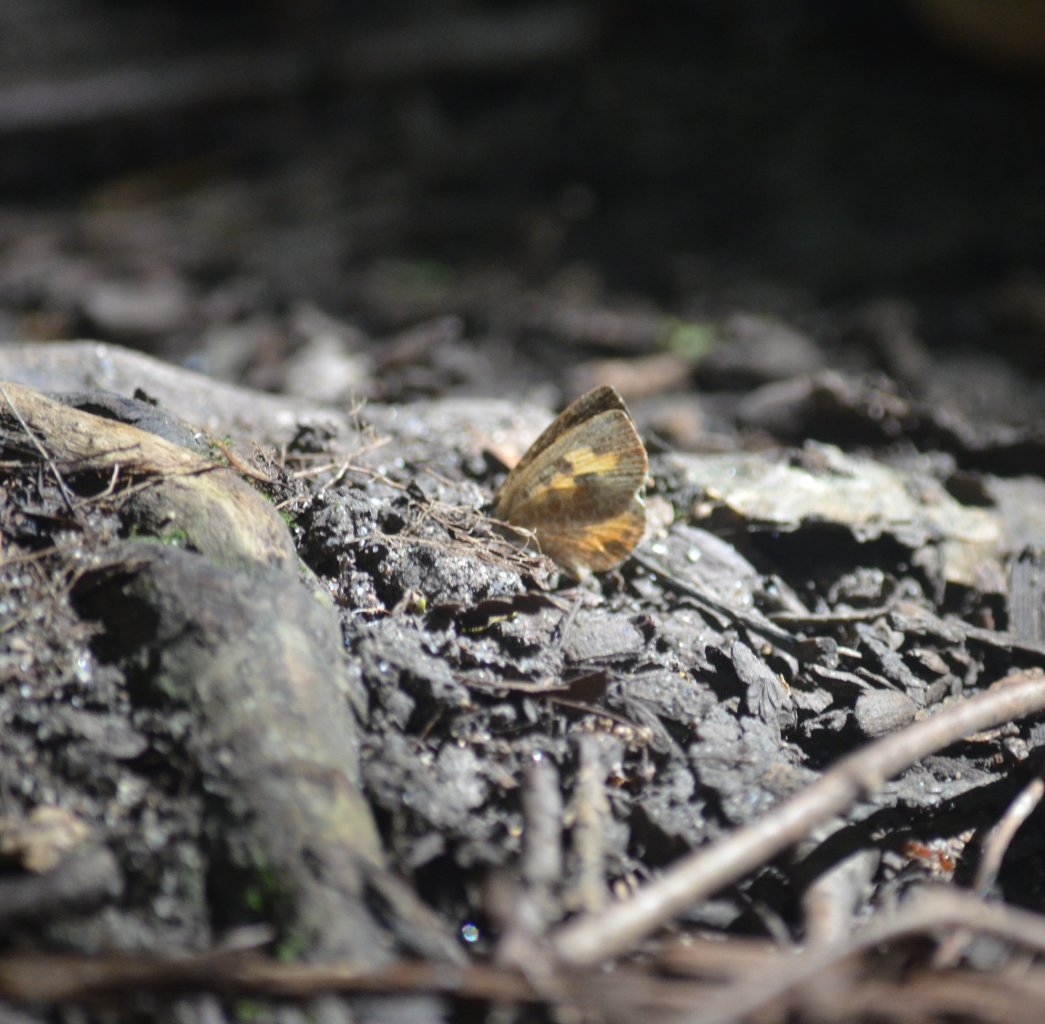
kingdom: Animalia
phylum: Arthropoda
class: Insecta
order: Lepidoptera
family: Lycaenidae
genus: Feniseca
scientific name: Feniseca tarquinius
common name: Harvester
